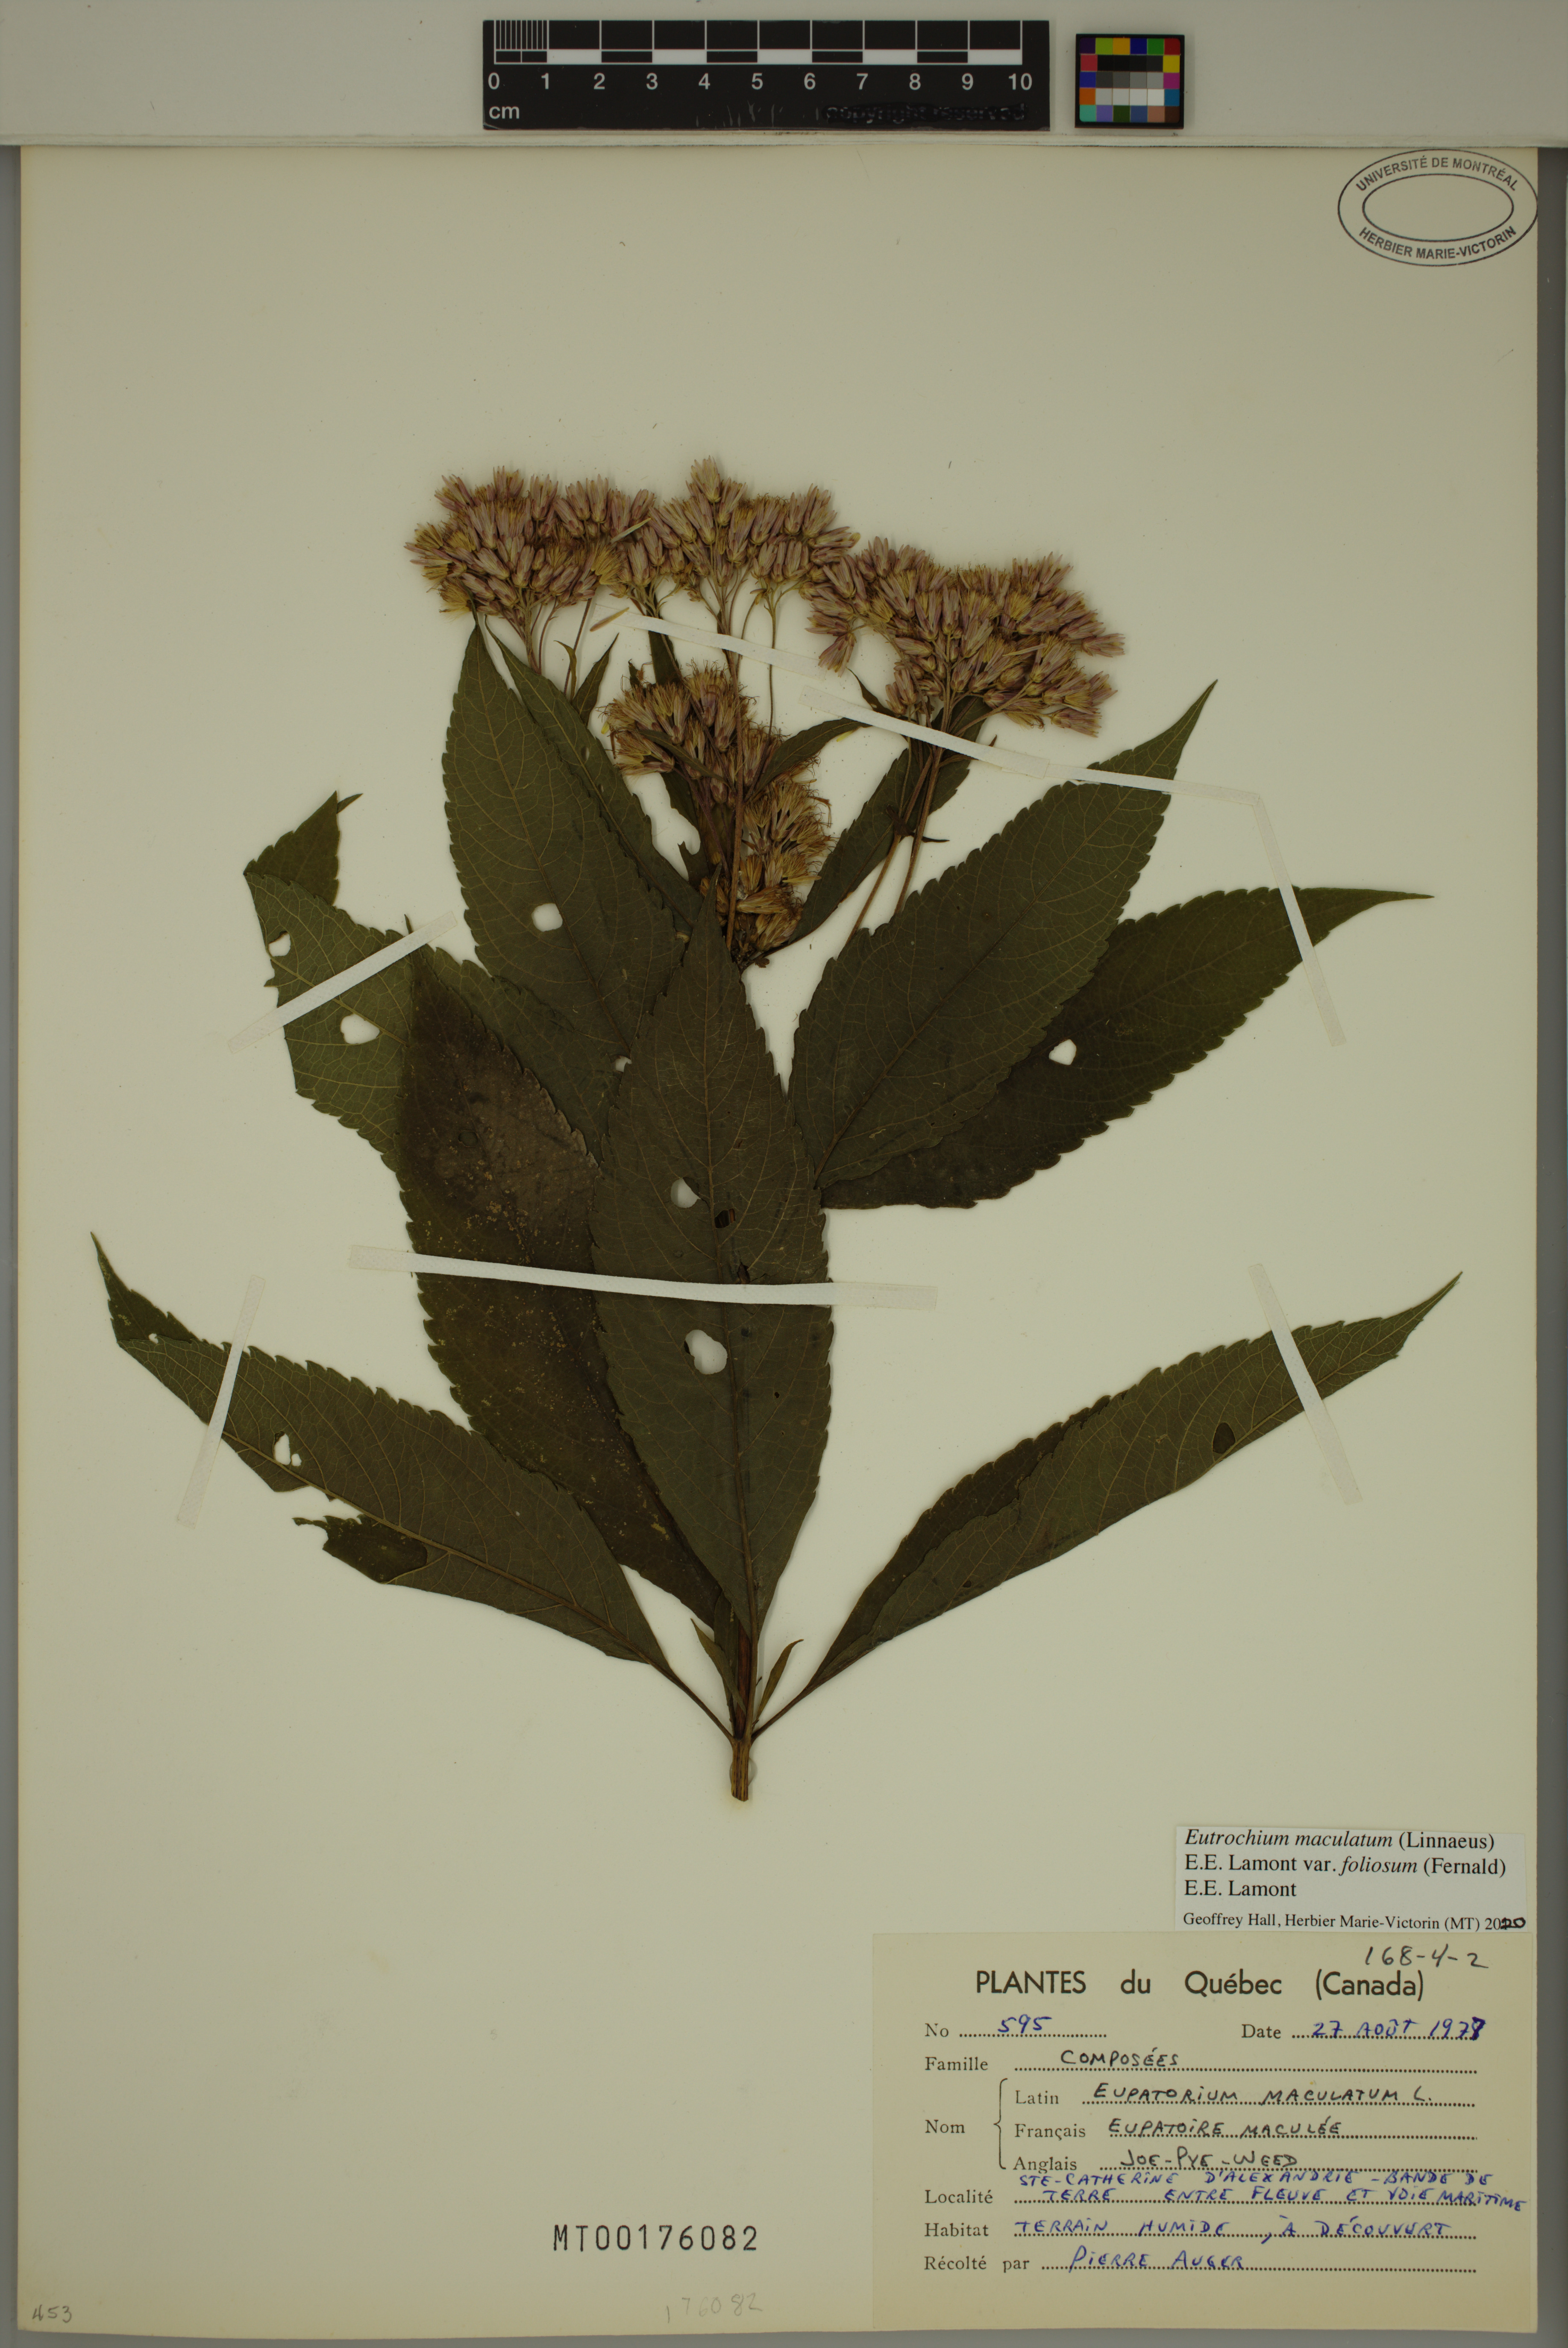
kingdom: Plantae
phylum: Tracheophyta
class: Magnoliopsida
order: Asterales
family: Asteraceae
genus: Eutrochium
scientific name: Eutrochium maculatum
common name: Spotted joe pye weed
